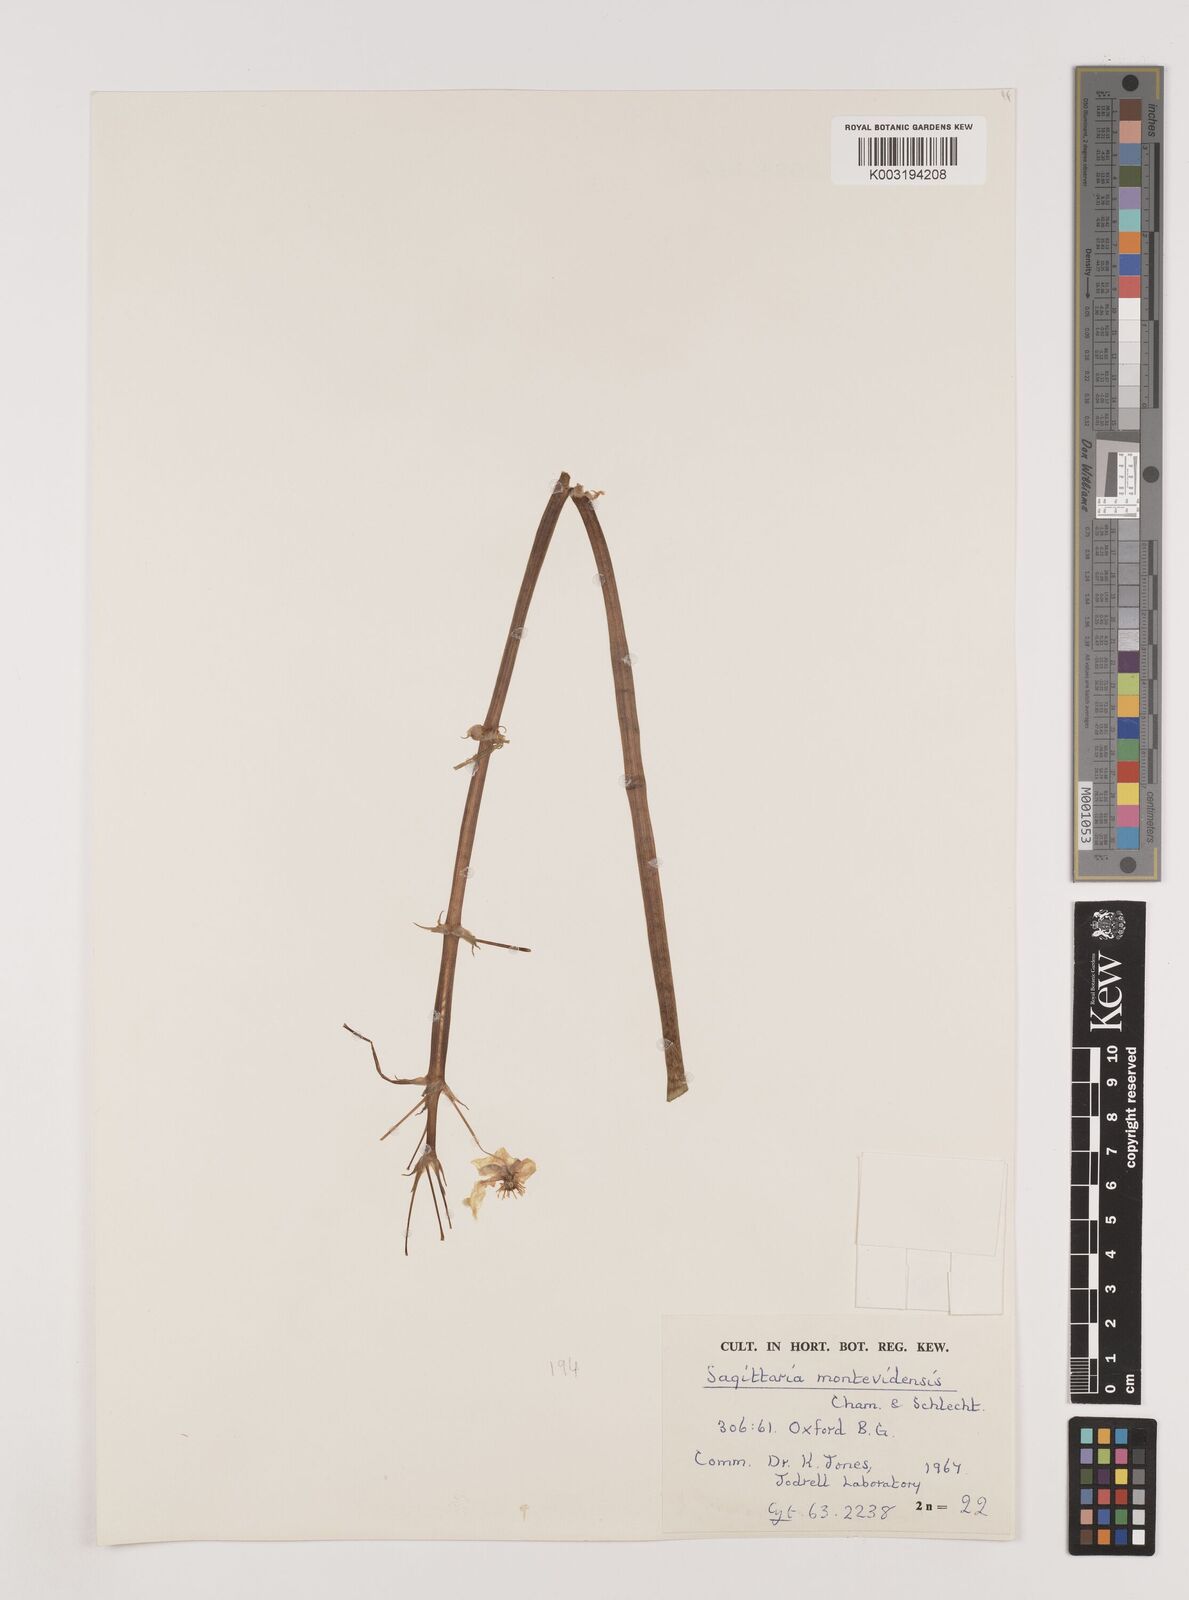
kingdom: Plantae
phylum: Tracheophyta
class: Liliopsida
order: Alismatales
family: Alismataceae
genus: Sagittaria
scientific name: Sagittaria montevidensis
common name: Giant arrowhead
